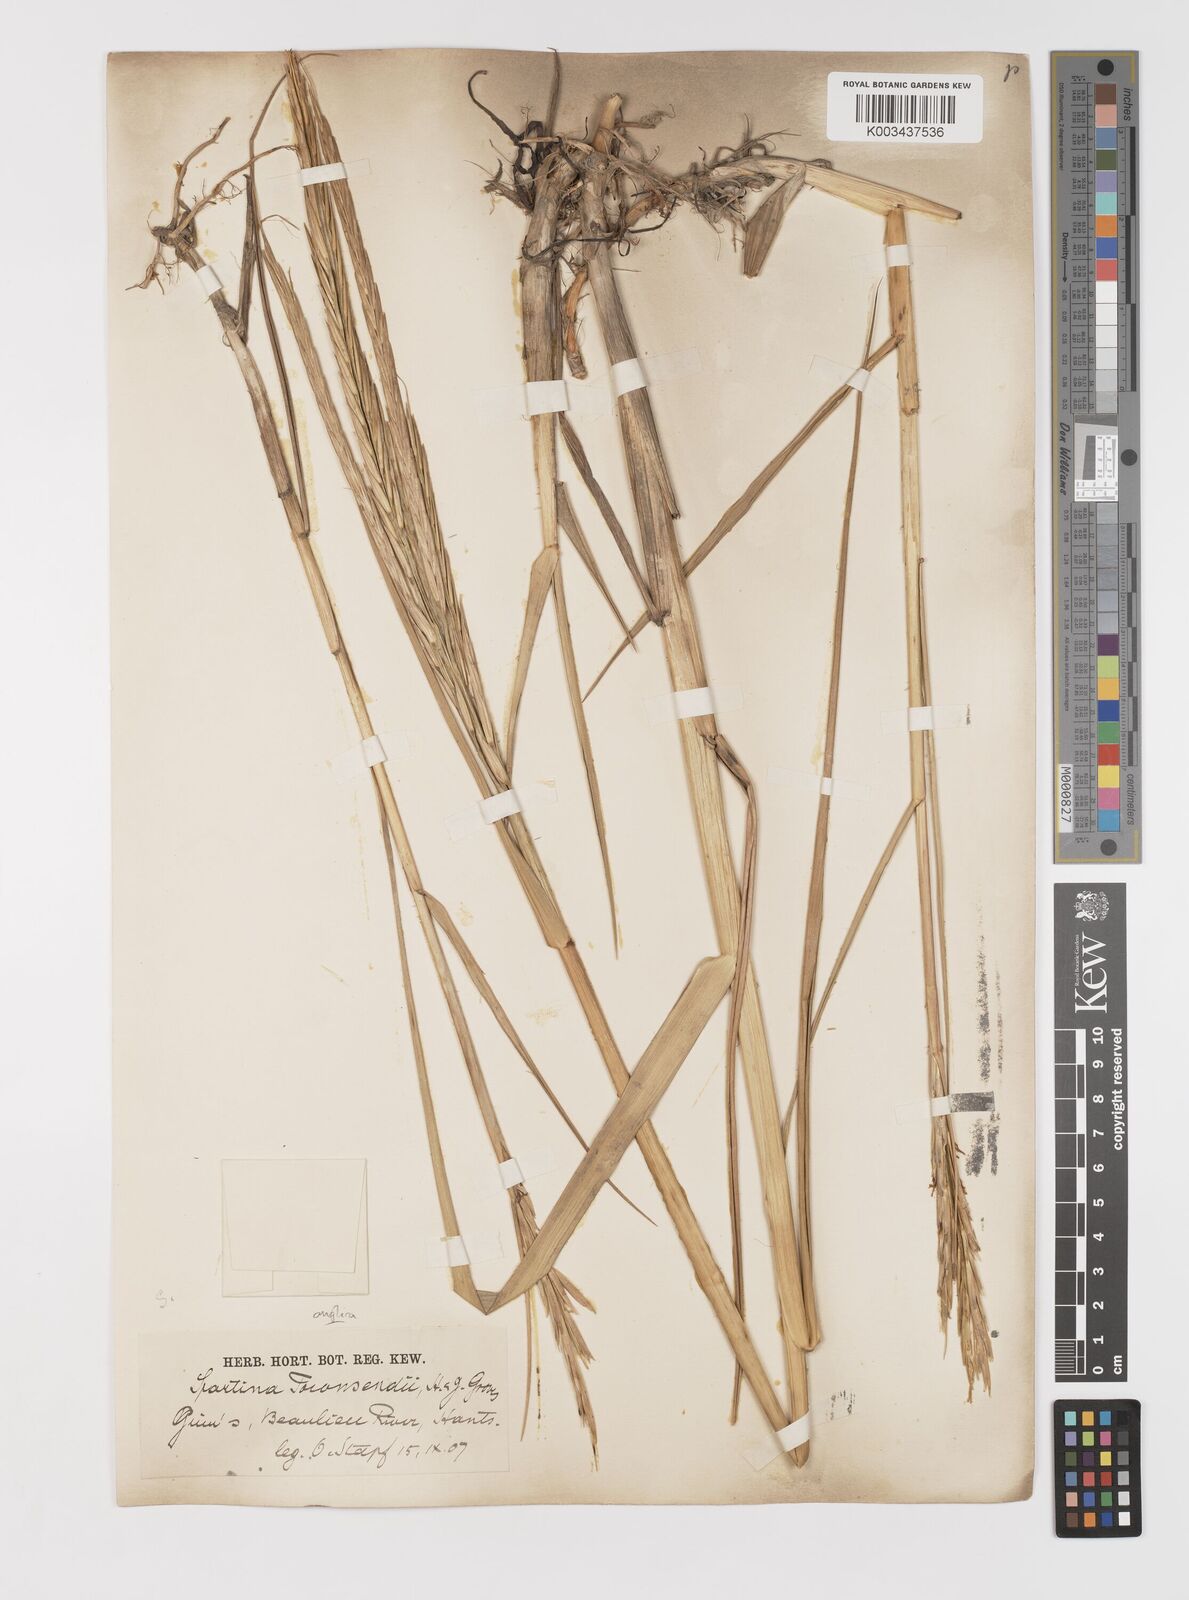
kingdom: Plantae
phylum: Tracheophyta
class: Liliopsida
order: Poales
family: Poaceae
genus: Sporobolus
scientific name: Sporobolus anglicus
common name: English cordgrass
